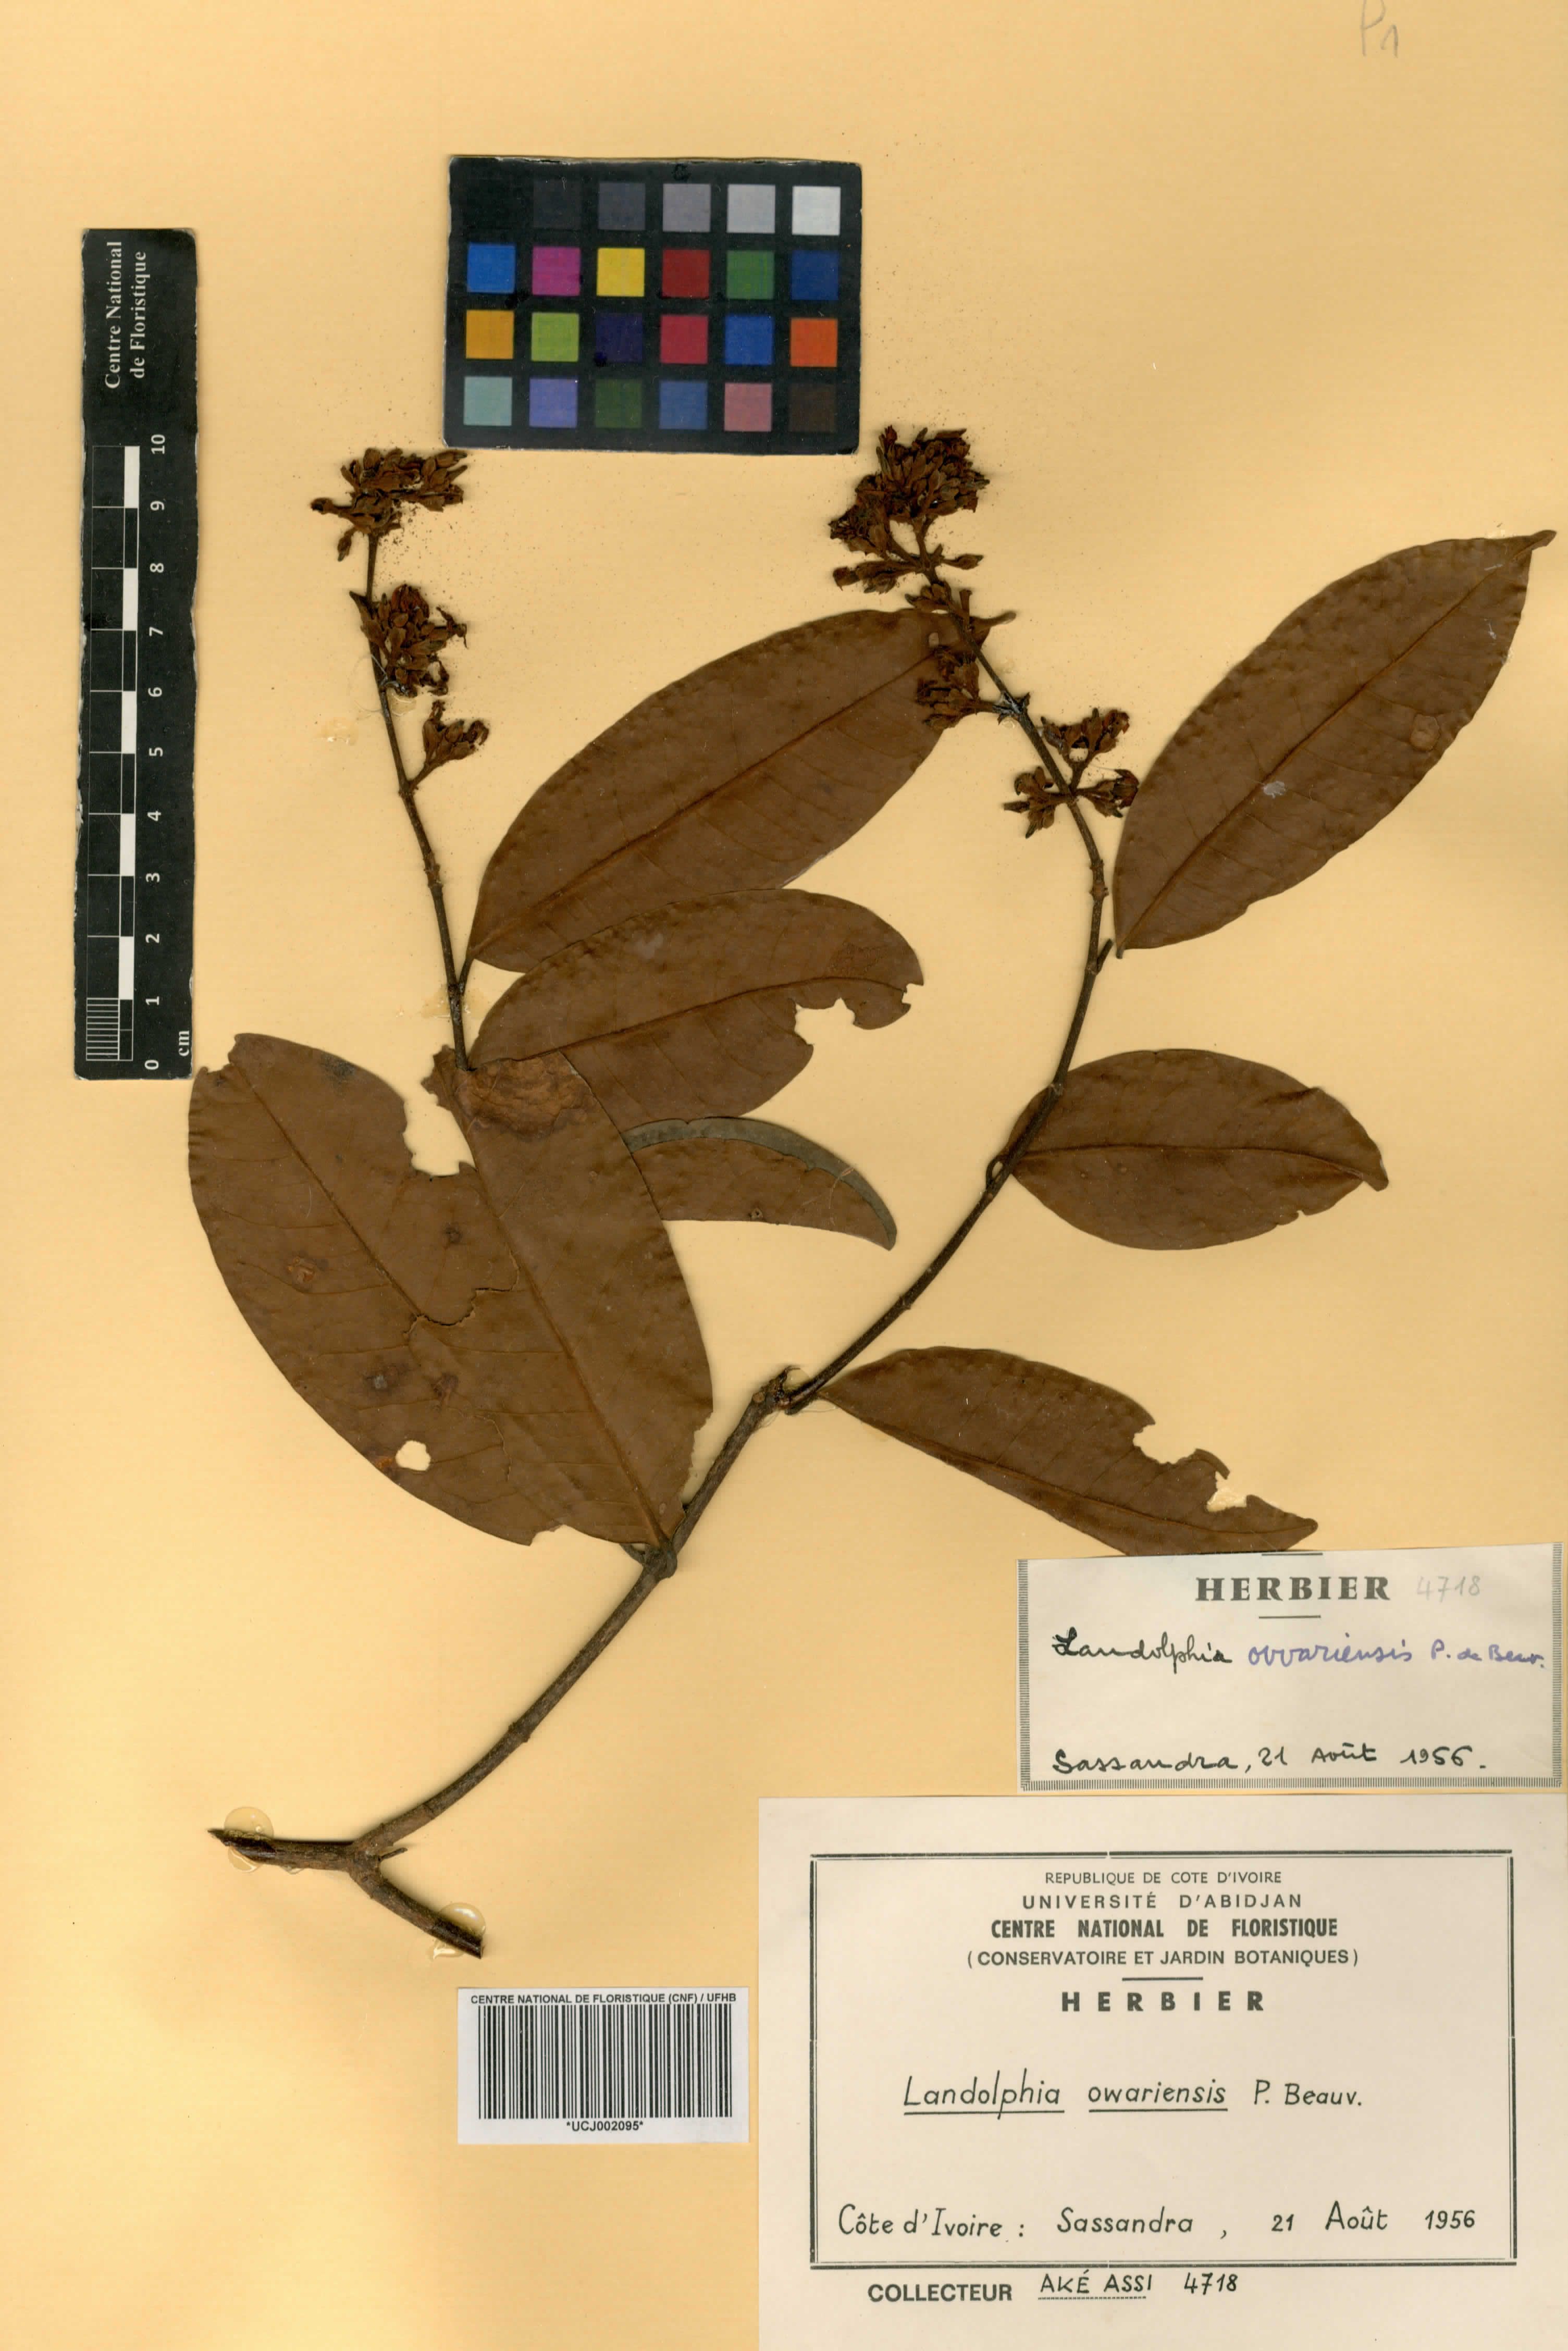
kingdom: Plantae
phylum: Tracheophyta
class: Magnoliopsida
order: Gentianales
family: Apocynaceae
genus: Landolphia
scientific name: Landolphia owariensis
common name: White-ball-rubber
